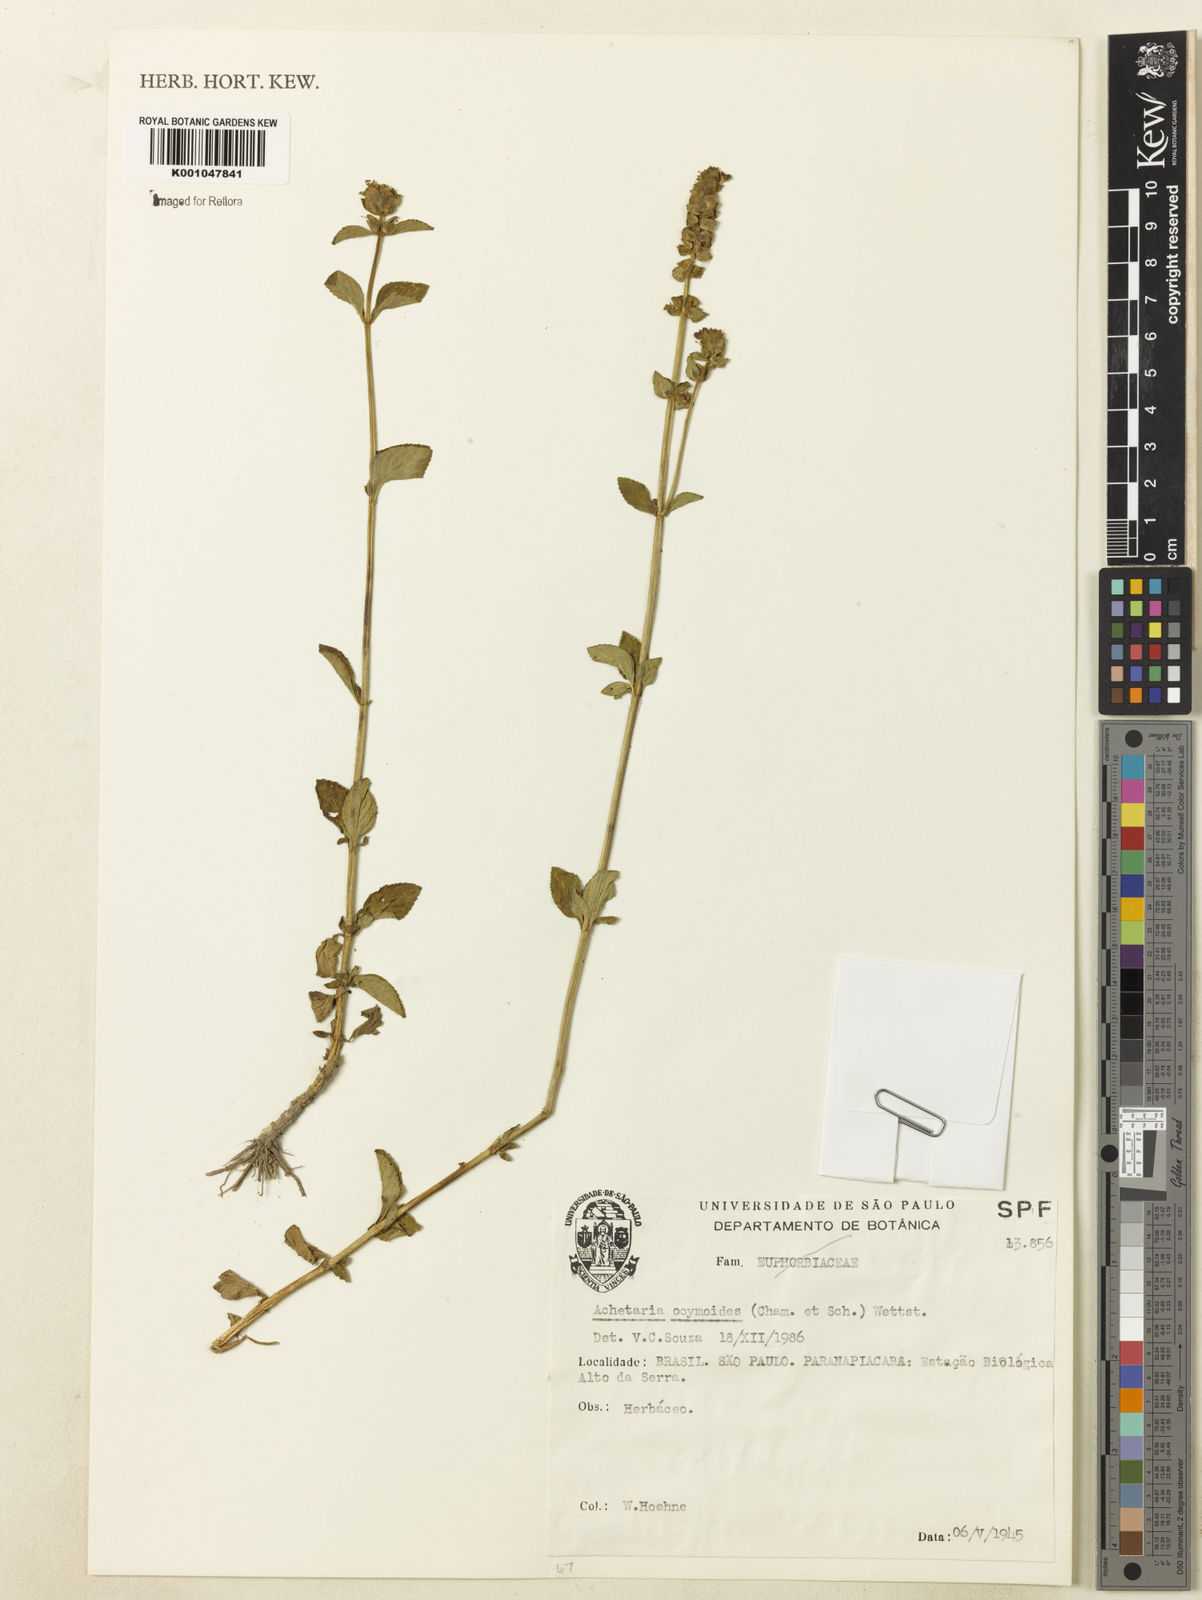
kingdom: Plantae
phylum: Tracheophyta
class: Magnoliopsida
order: Lamiales
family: Plantaginaceae
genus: Matourea
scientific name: Matourea ocymoides
